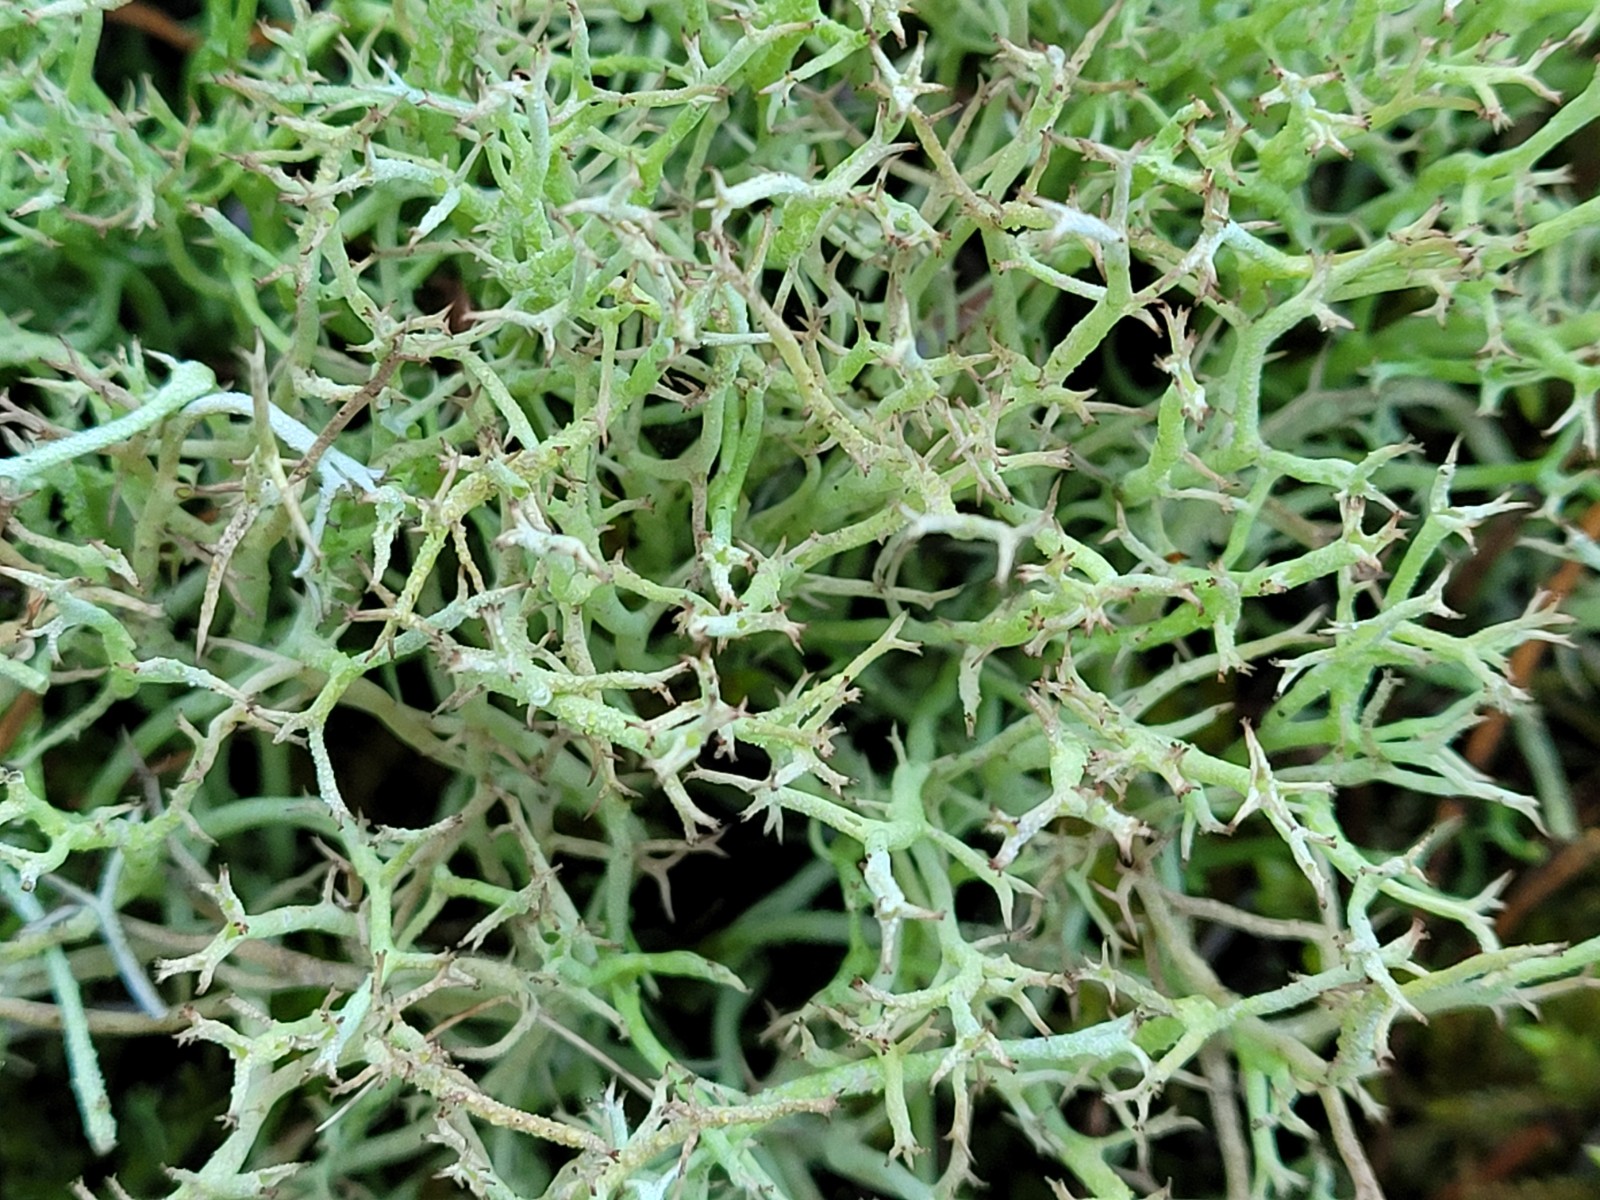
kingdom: Fungi
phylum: Ascomycota
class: Lecanoromycetes
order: Lecanorales
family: Cladoniaceae
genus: Cladonia
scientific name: Cladonia rangiformis
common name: spættet bægerlav
